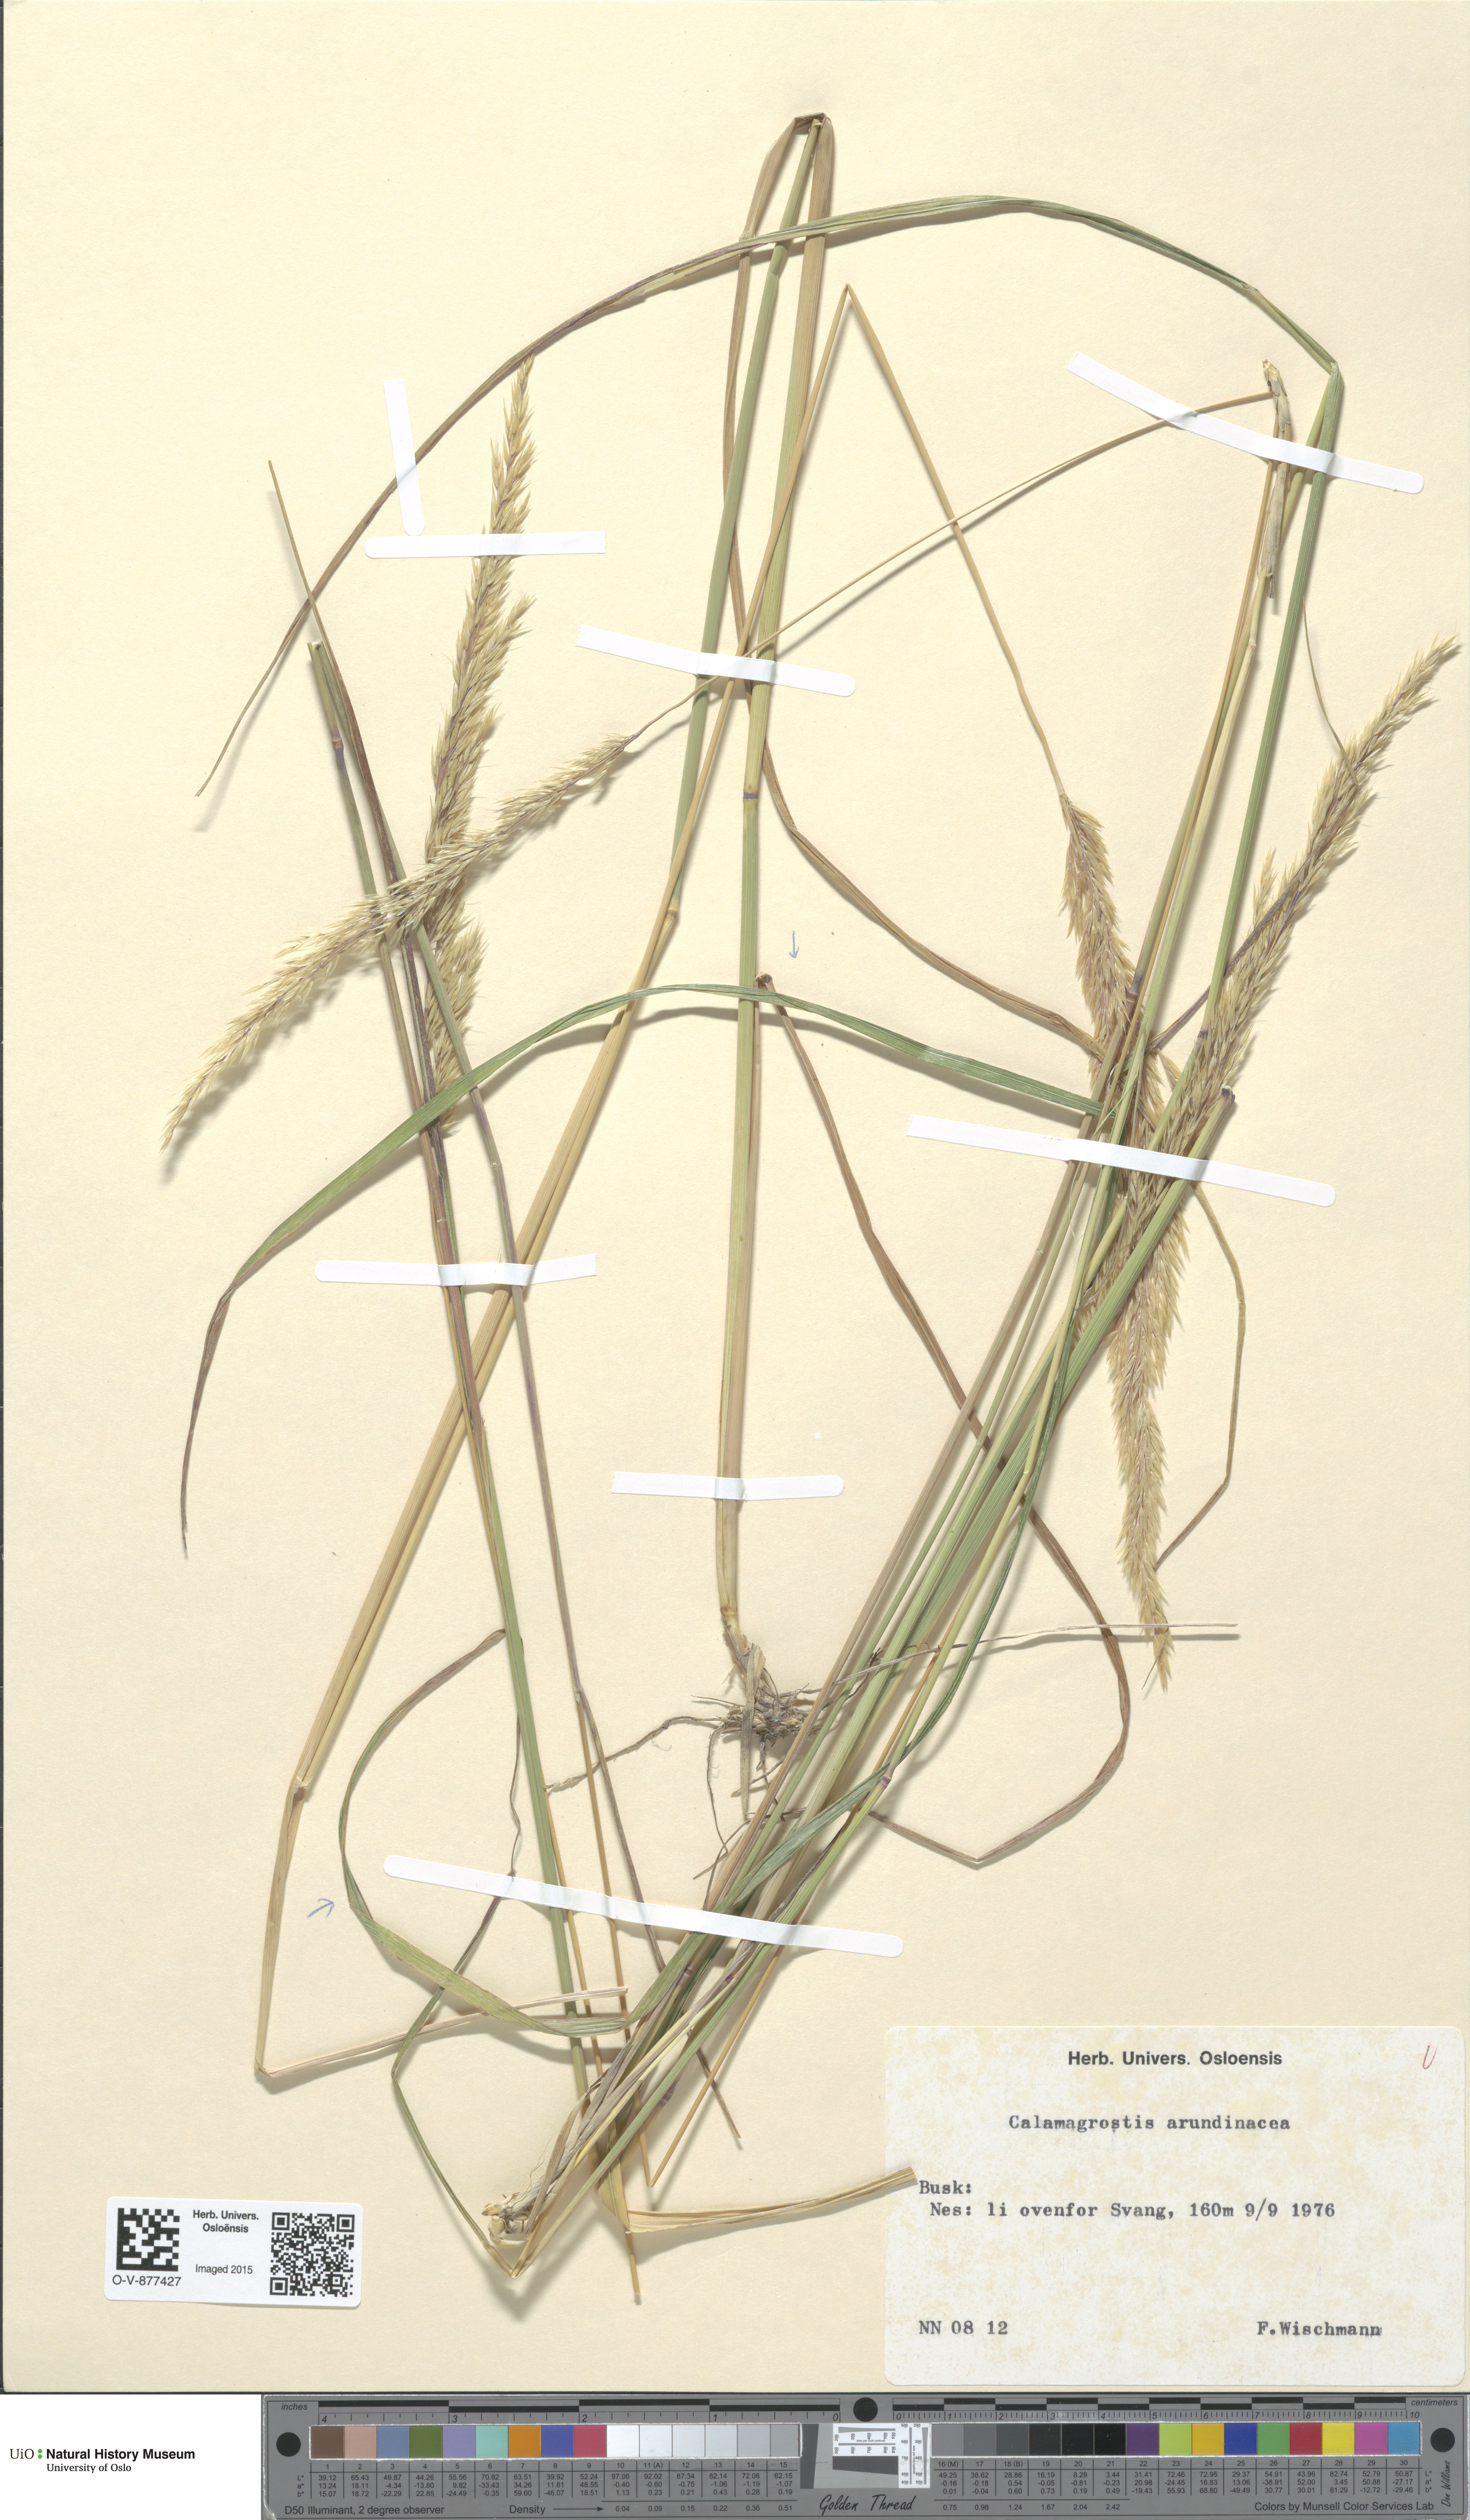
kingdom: Plantae
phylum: Tracheophyta
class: Liliopsida
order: Poales
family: Poaceae
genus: Calamagrostis
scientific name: Calamagrostis arundinacea
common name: Metskastik
